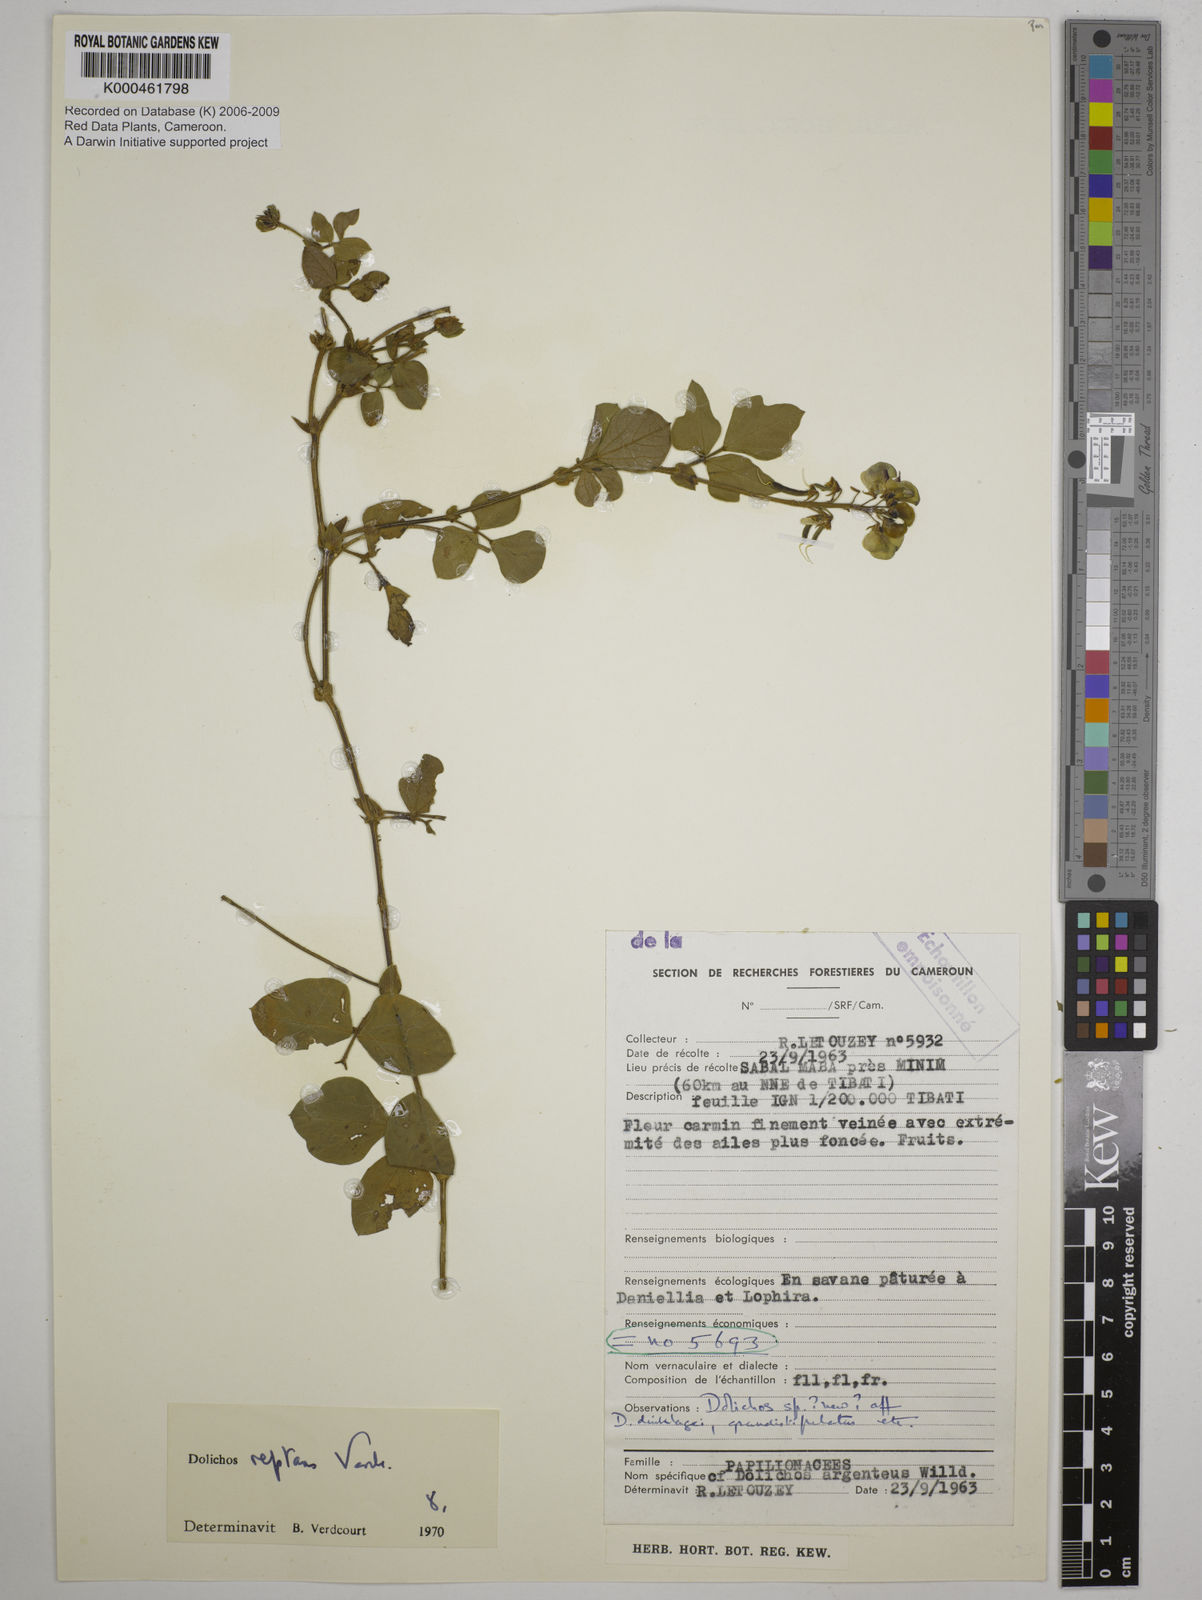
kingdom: Plantae
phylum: Tracheophyta
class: Magnoliopsida
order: Fabales
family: Fabaceae
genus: Dolichos
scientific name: Dolichos reptans
